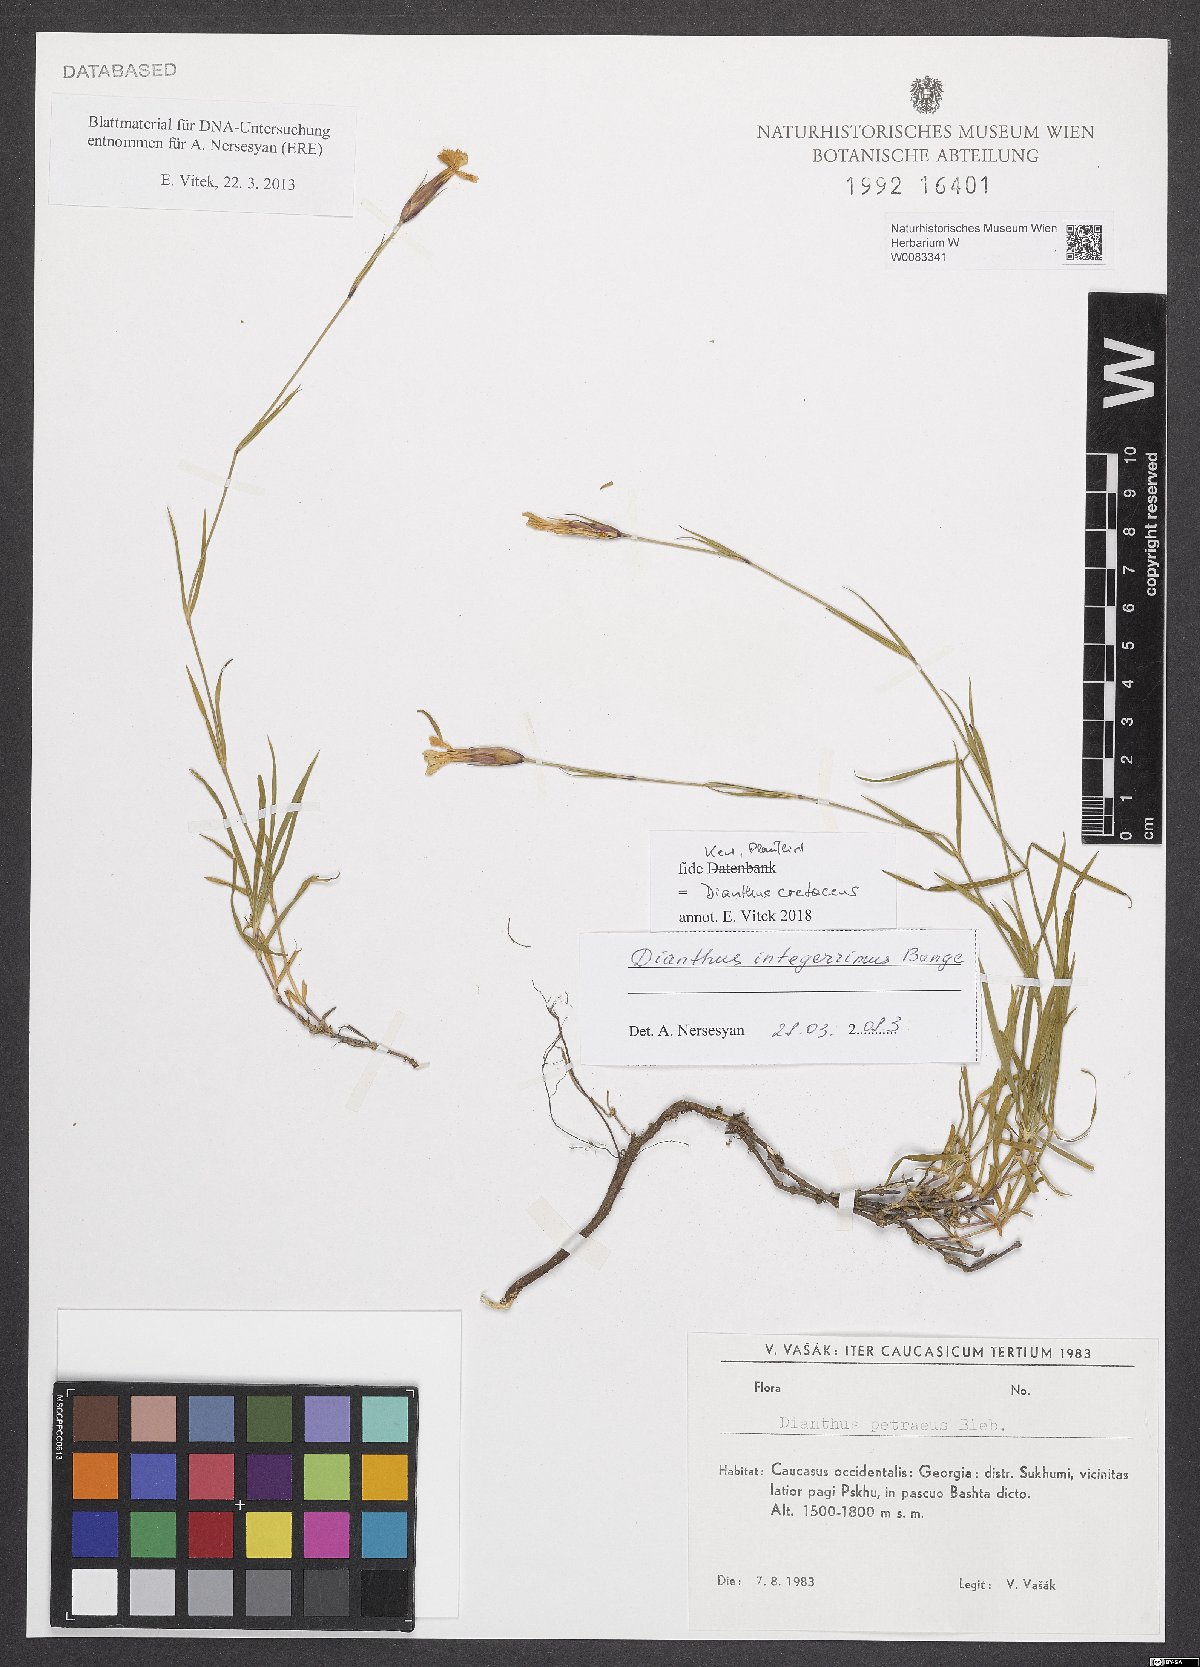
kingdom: Plantae
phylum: Tracheophyta
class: Magnoliopsida
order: Caryophyllales
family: Caryophyllaceae
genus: Dianthus
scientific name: Dianthus cretaceus
